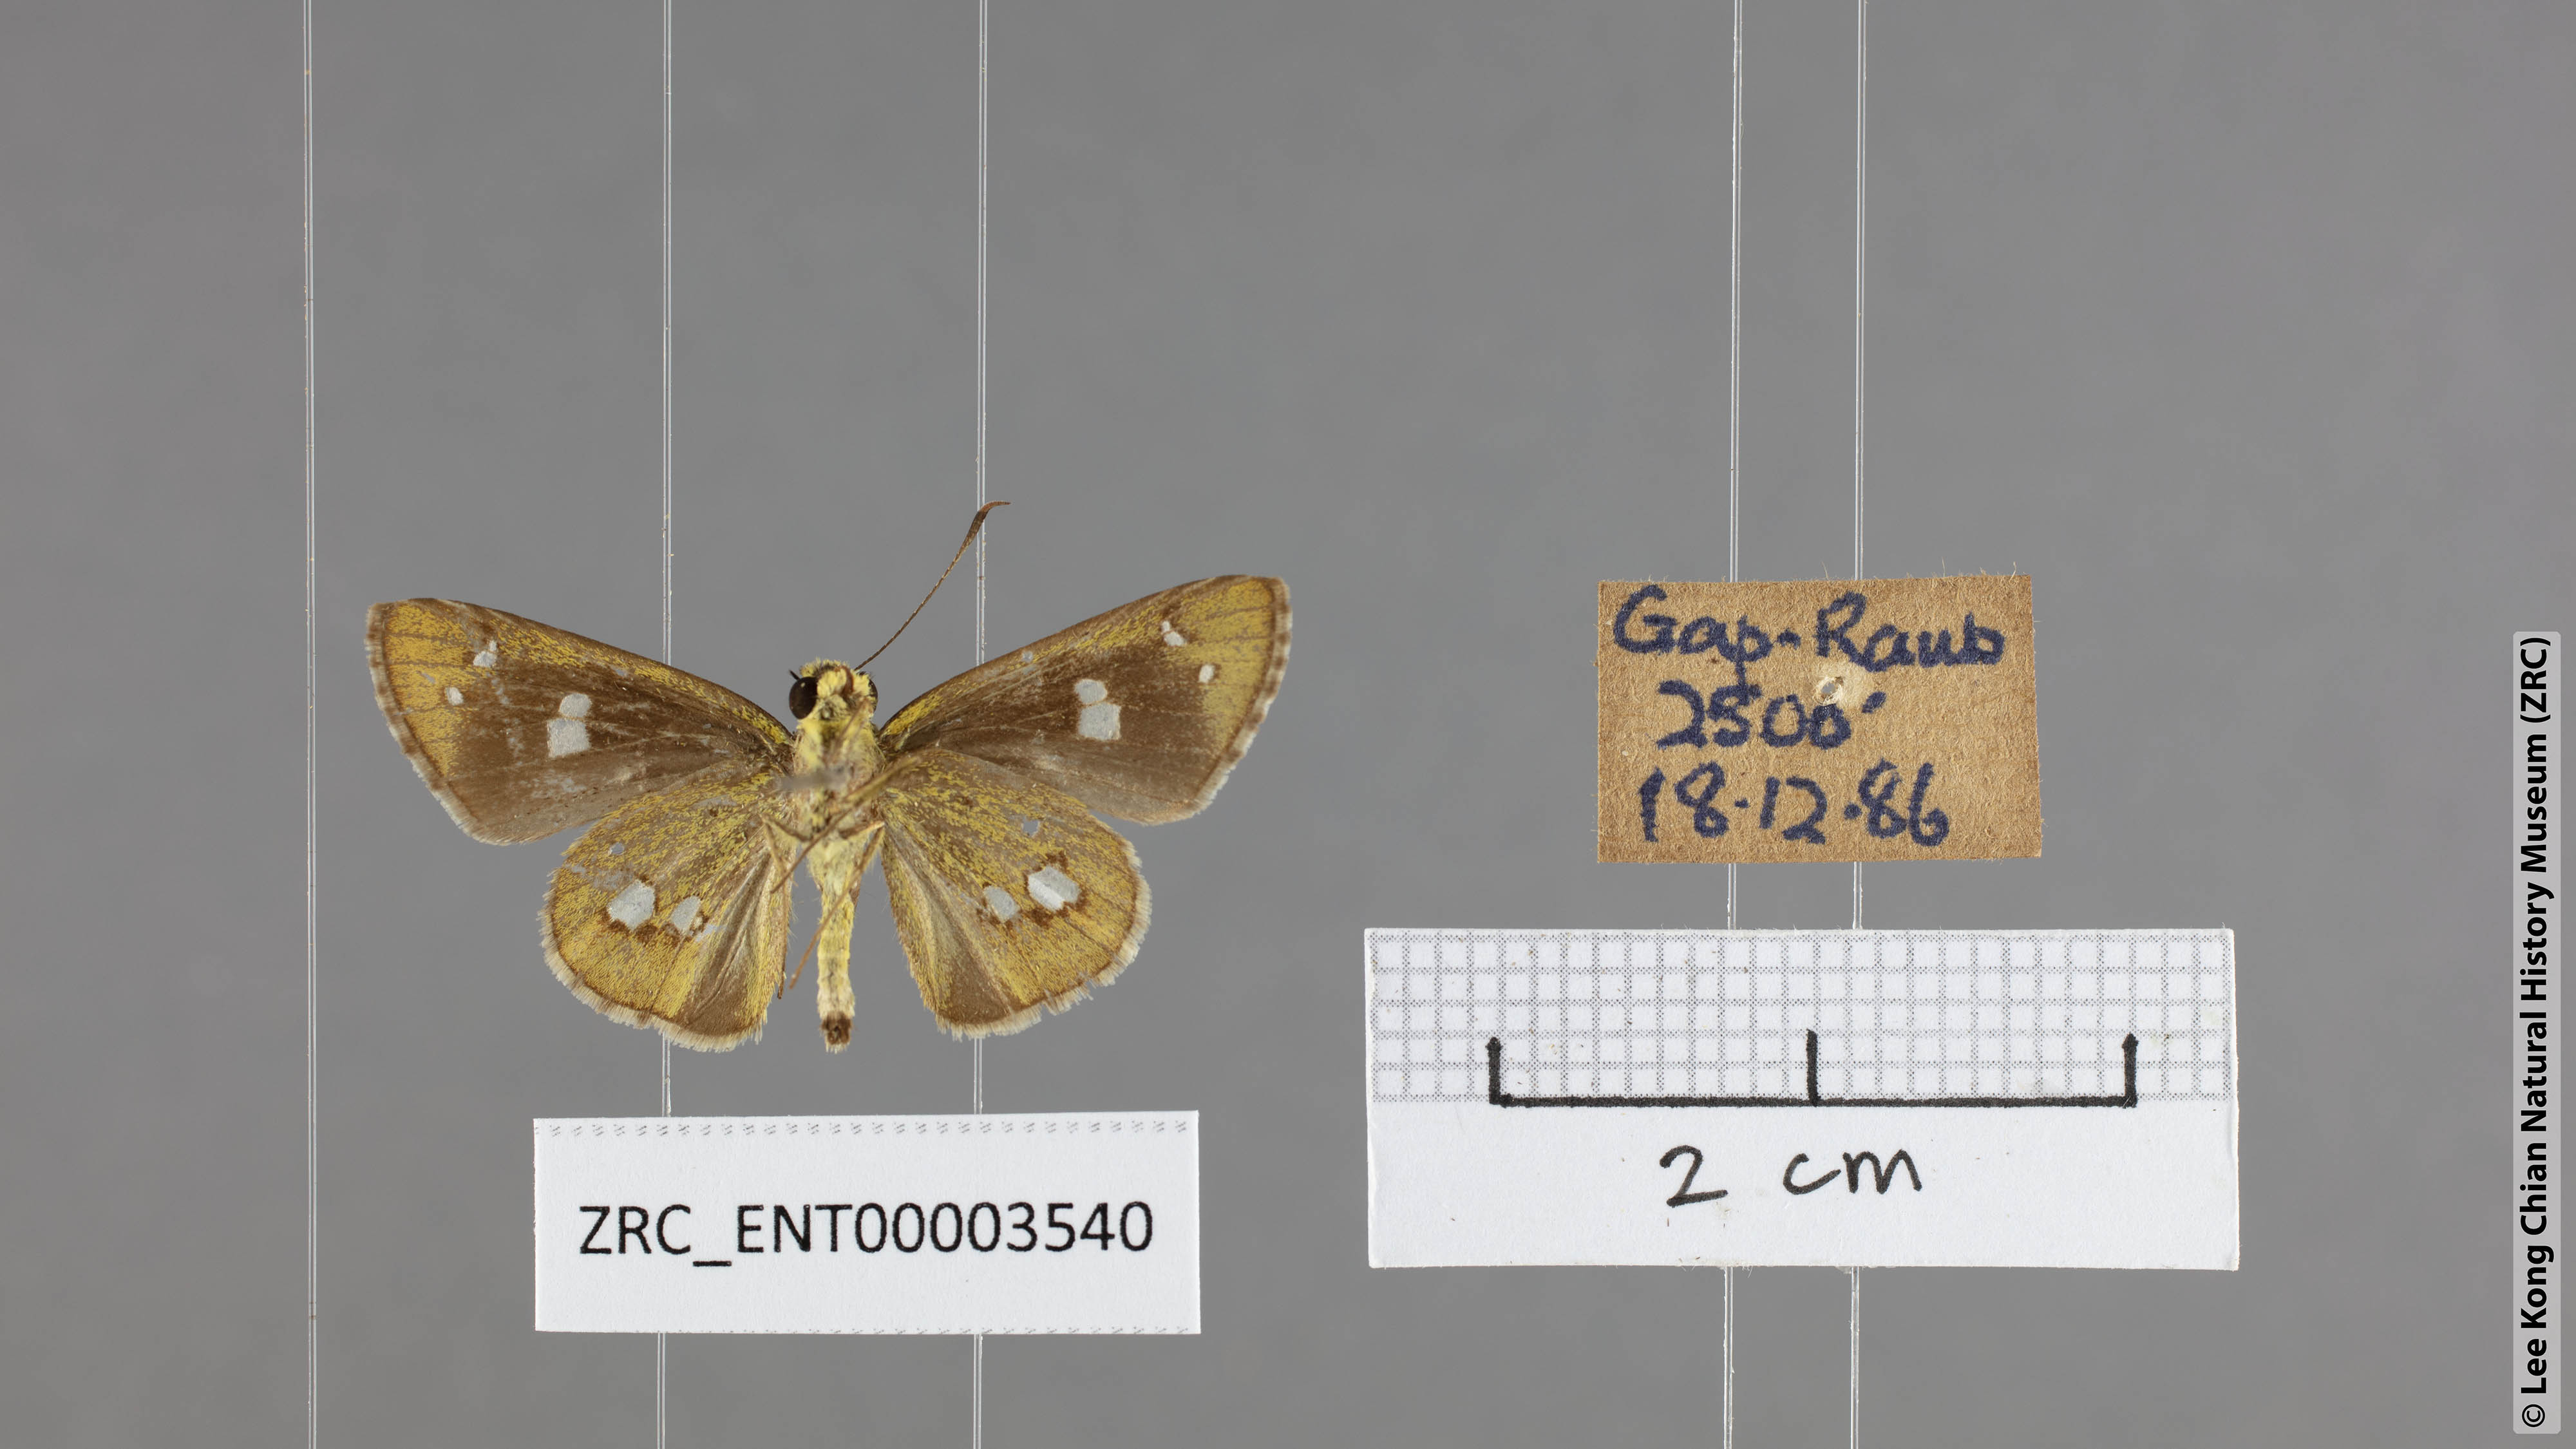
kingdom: Animalia
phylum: Arthropoda
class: Insecta
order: Lepidoptera
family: Hesperiidae
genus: Scobura
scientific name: Scobura isota
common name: Swinhoe's forest bob
